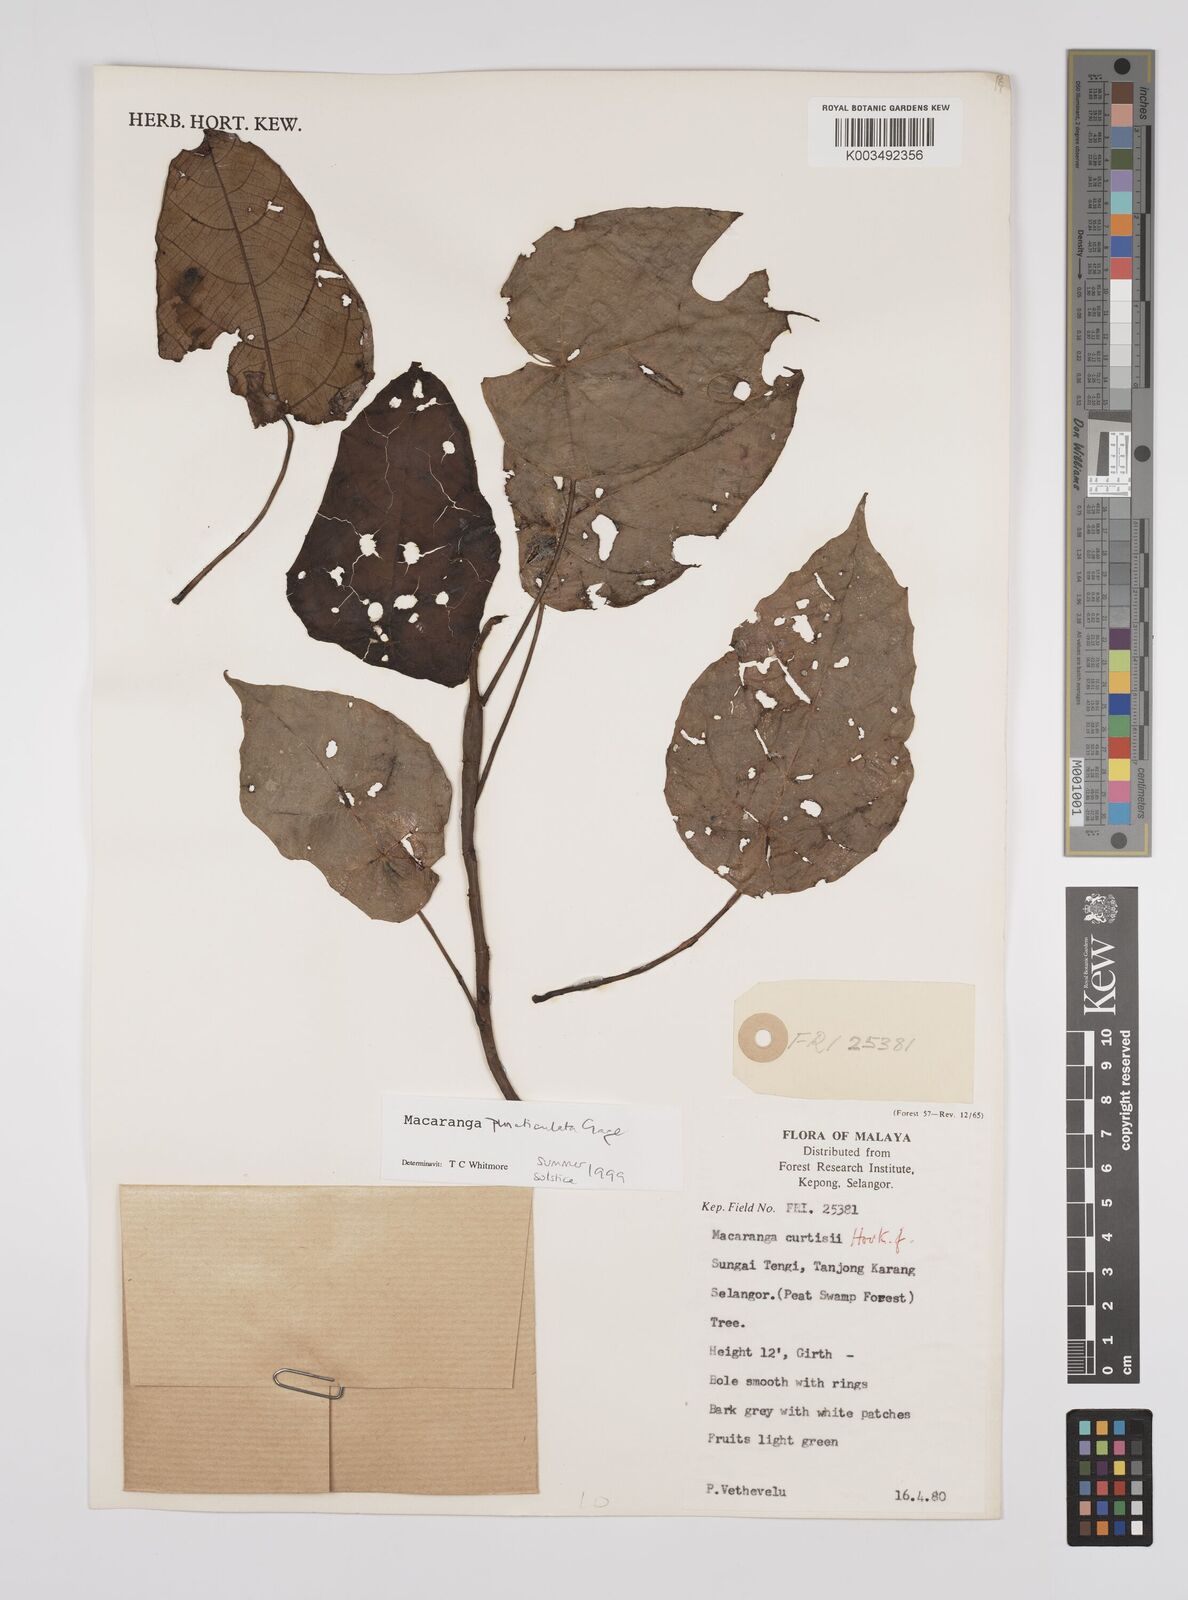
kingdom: Plantae
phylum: Tracheophyta
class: Magnoliopsida
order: Malpighiales
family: Euphorbiaceae
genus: Macaranga
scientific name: Macaranga puncticulata
